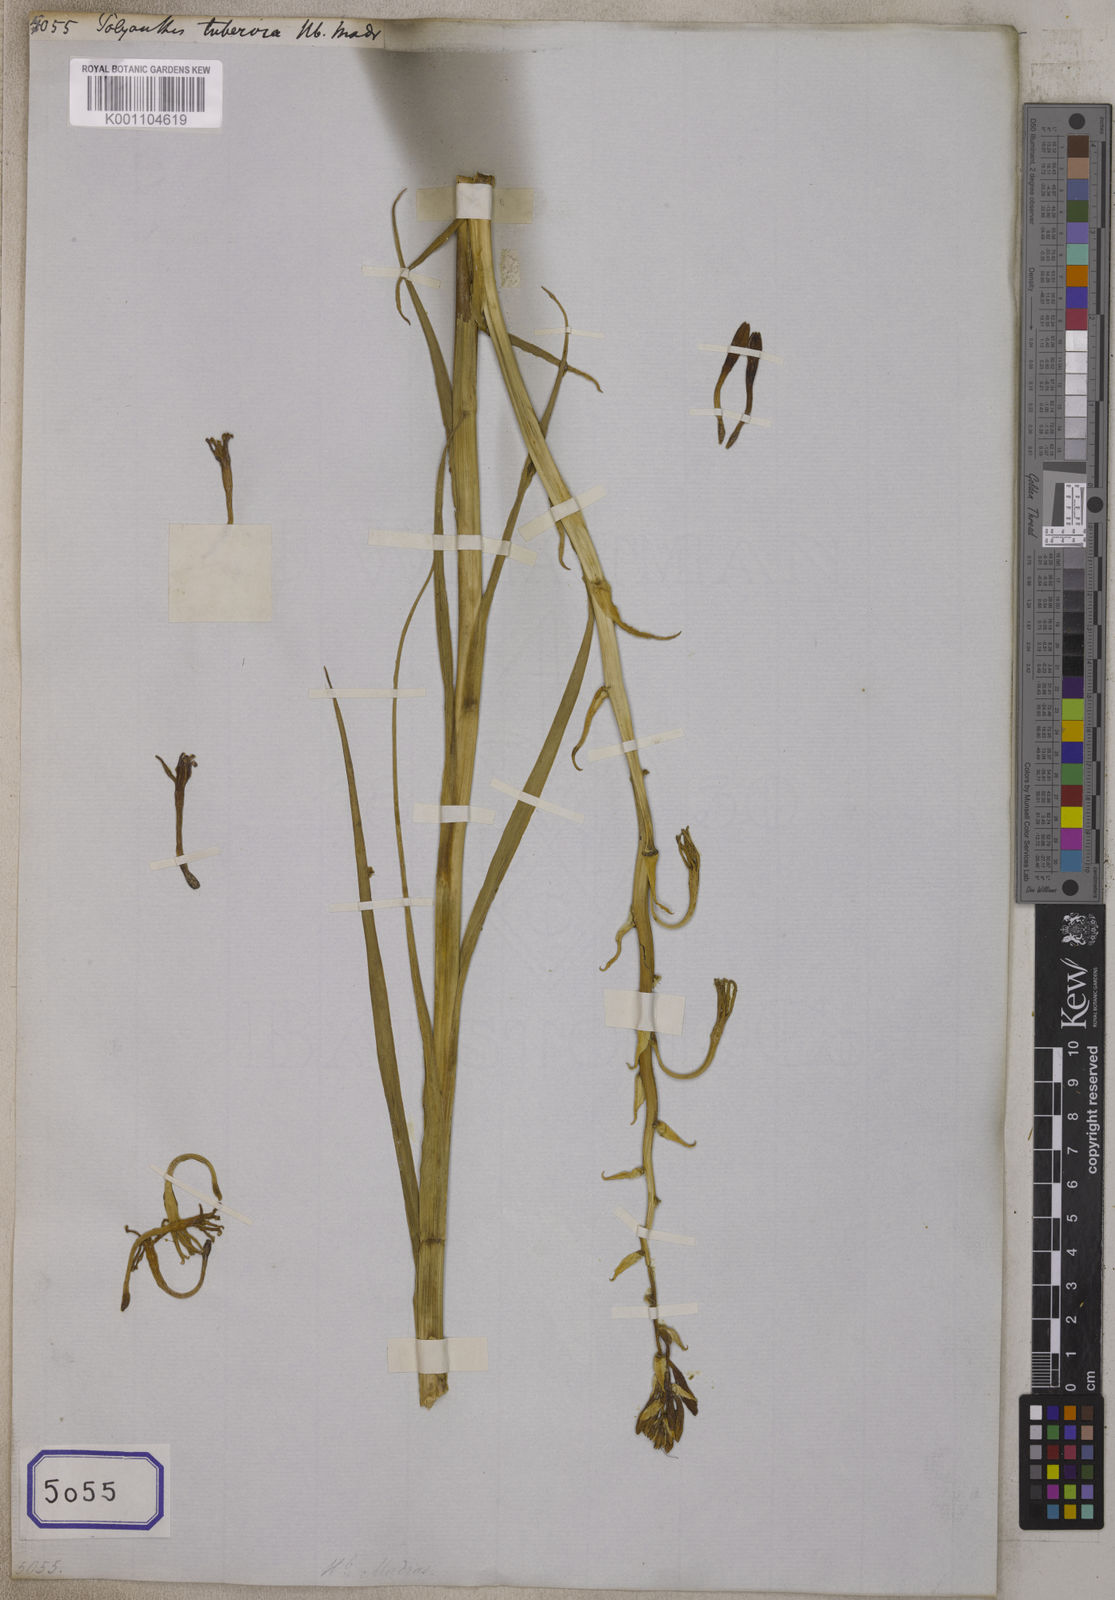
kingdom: Plantae
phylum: Tracheophyta
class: Liliopsida
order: Asparagales
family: Asparagaceae
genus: Agave
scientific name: Agave amica
